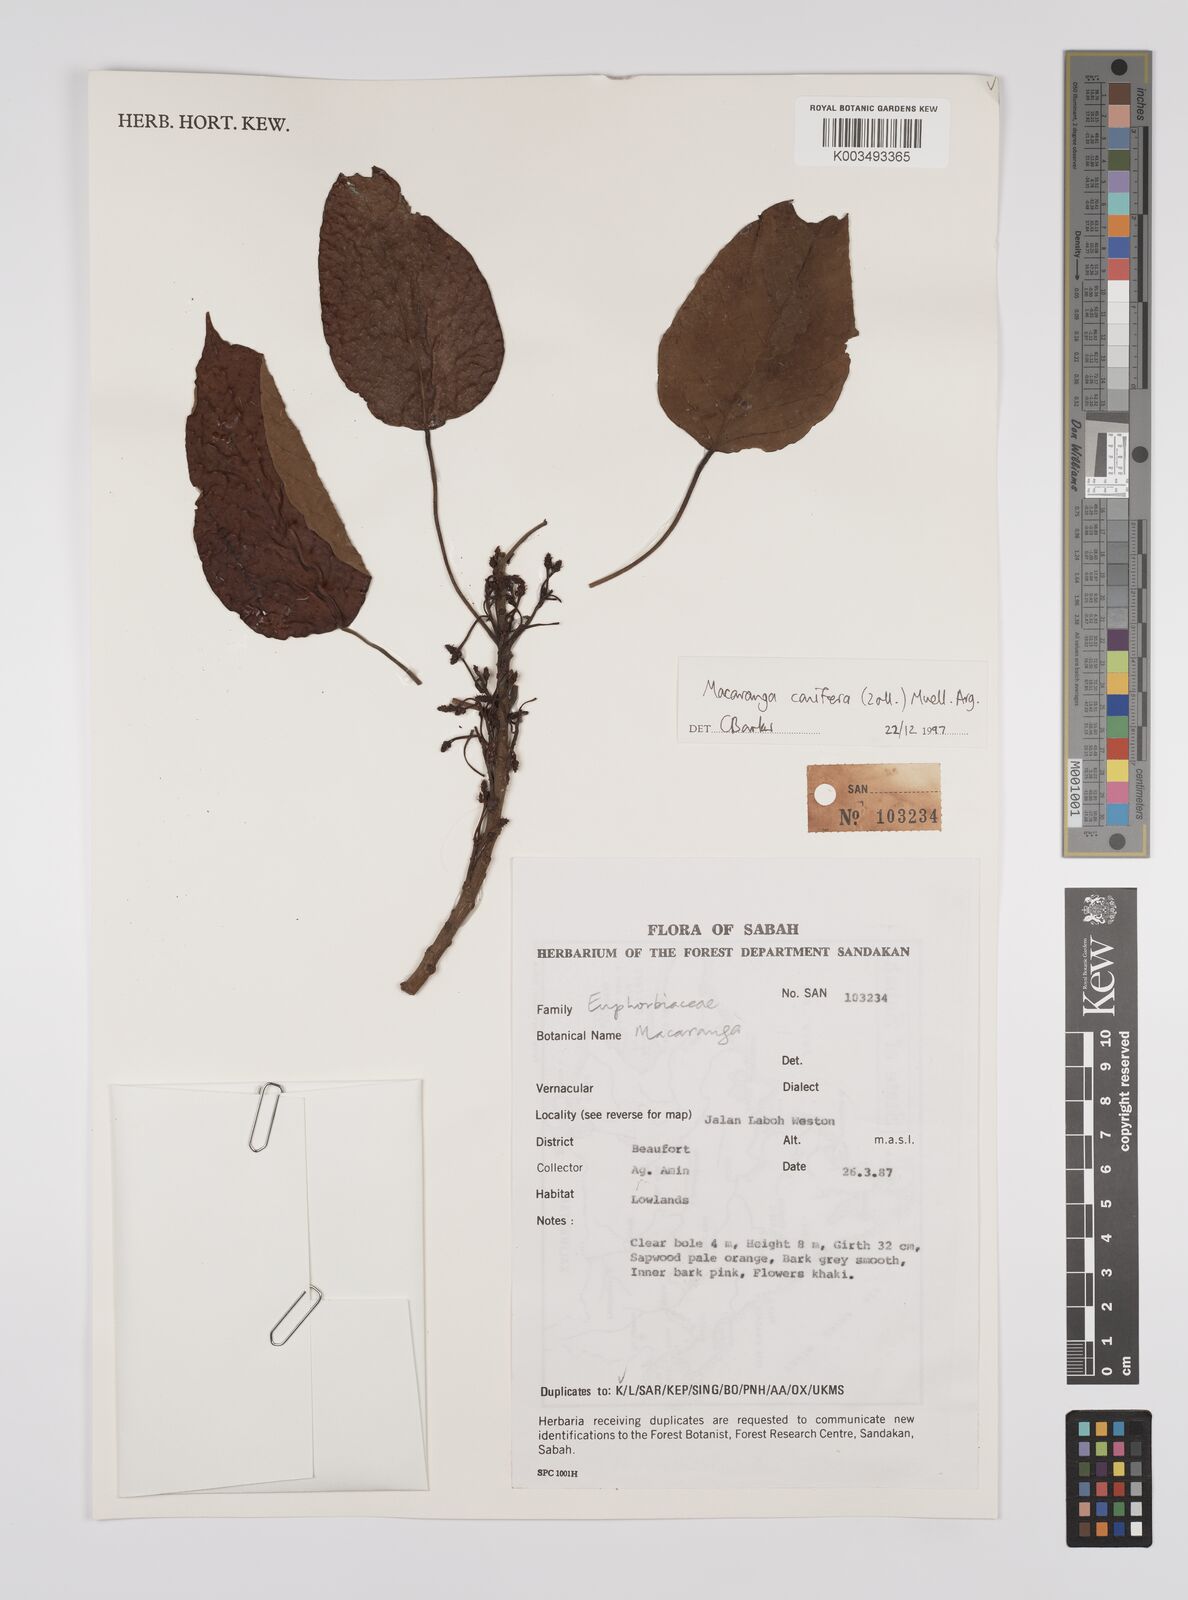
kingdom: Plantae
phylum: Tracheophyta
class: Magnoliopsida
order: Malpighiales
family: Euphorbiaceae
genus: Macaranga
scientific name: Macaranga conifera
